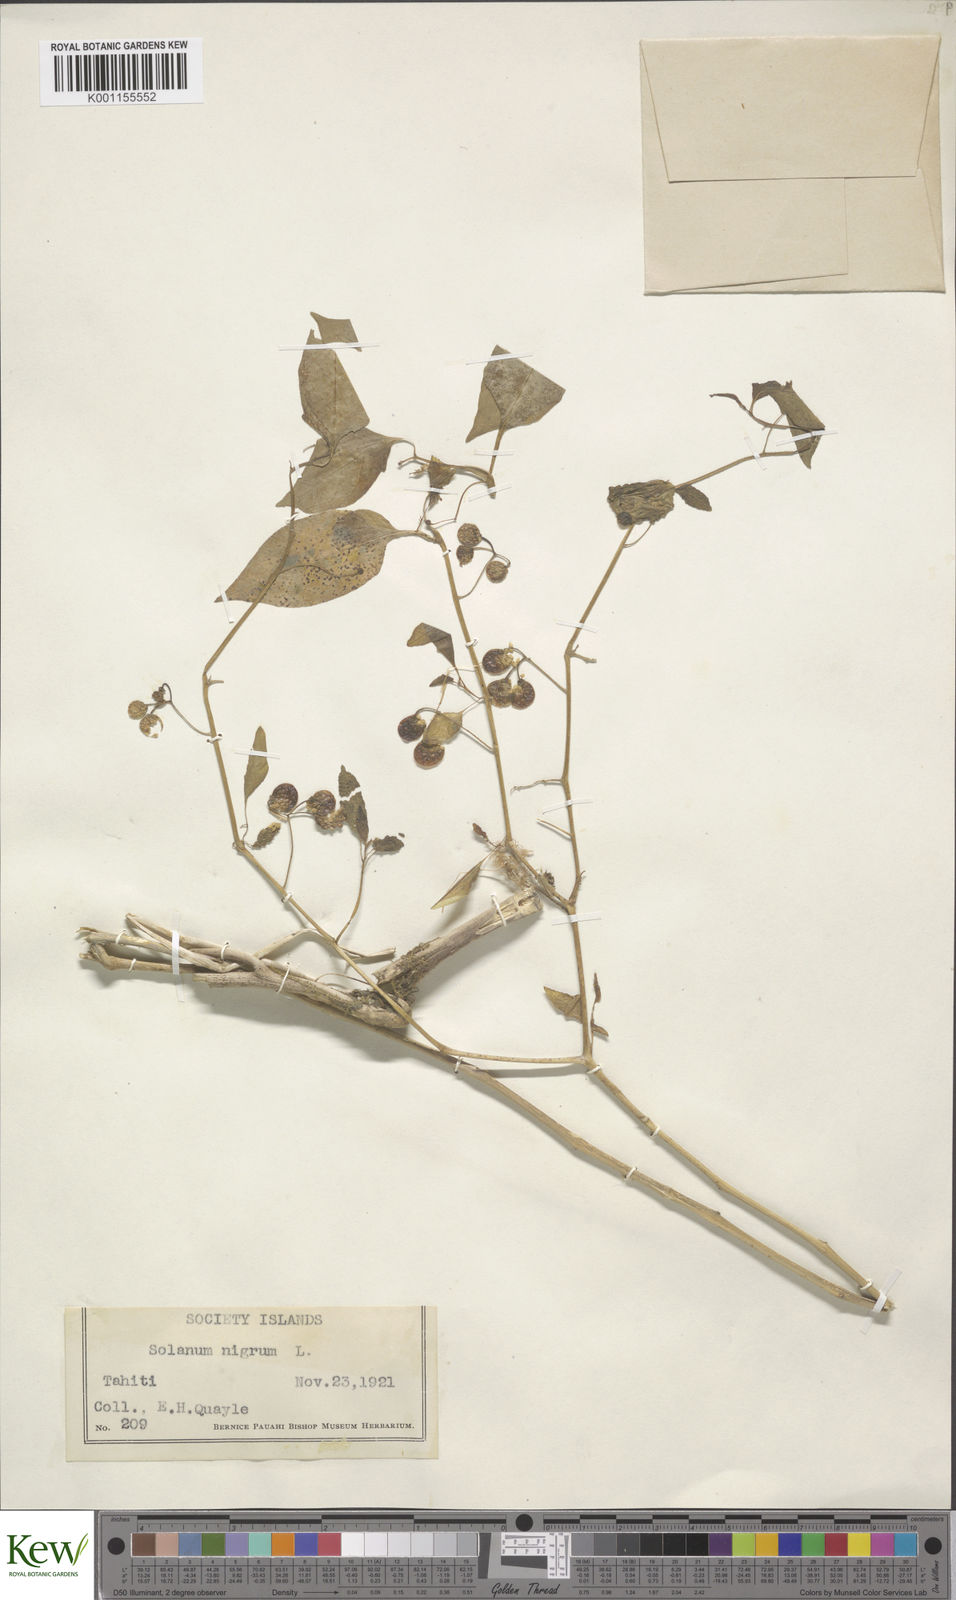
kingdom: Plantae
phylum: Tracheophyta
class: Magnoliopsida
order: Solanales
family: Solanaceae
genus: Solanum
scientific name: Solanum americanum
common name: American black nightshade
